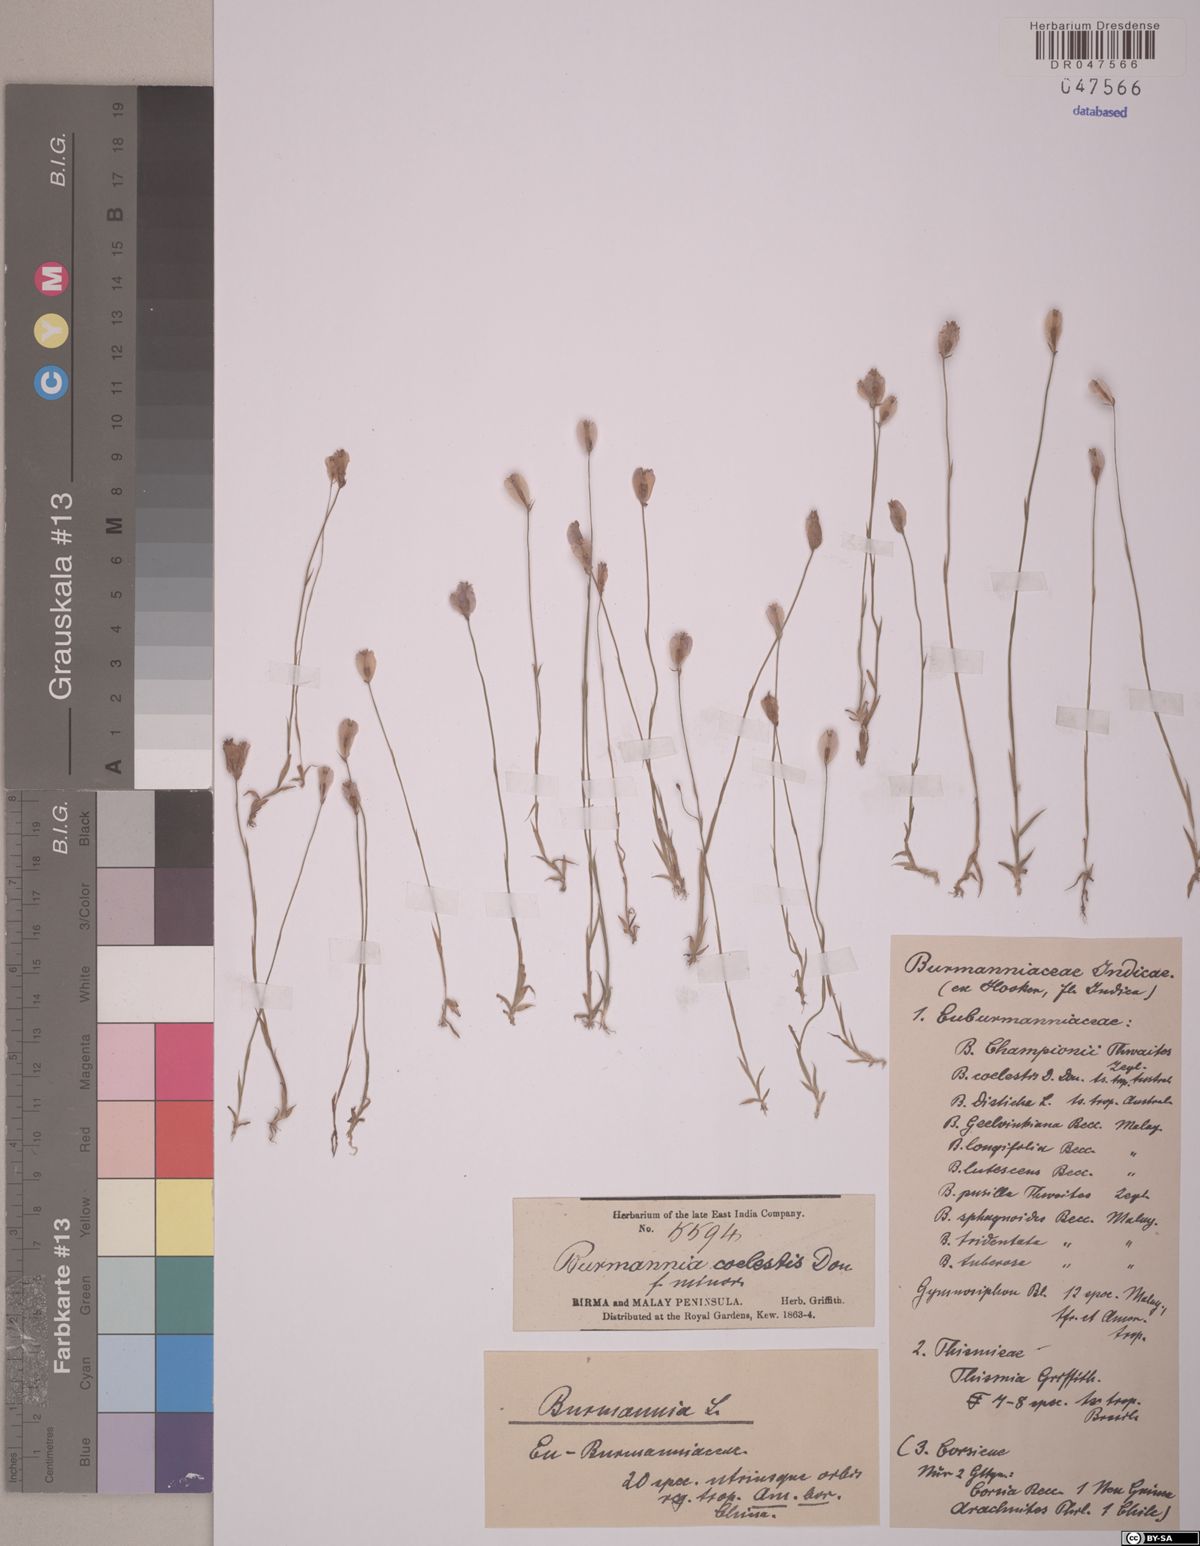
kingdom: Plantae
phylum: Tracheophyta
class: Liliopsida
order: Dioscoreales
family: Burmanniaceae
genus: Burmannia
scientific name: Burmannia coelestis
